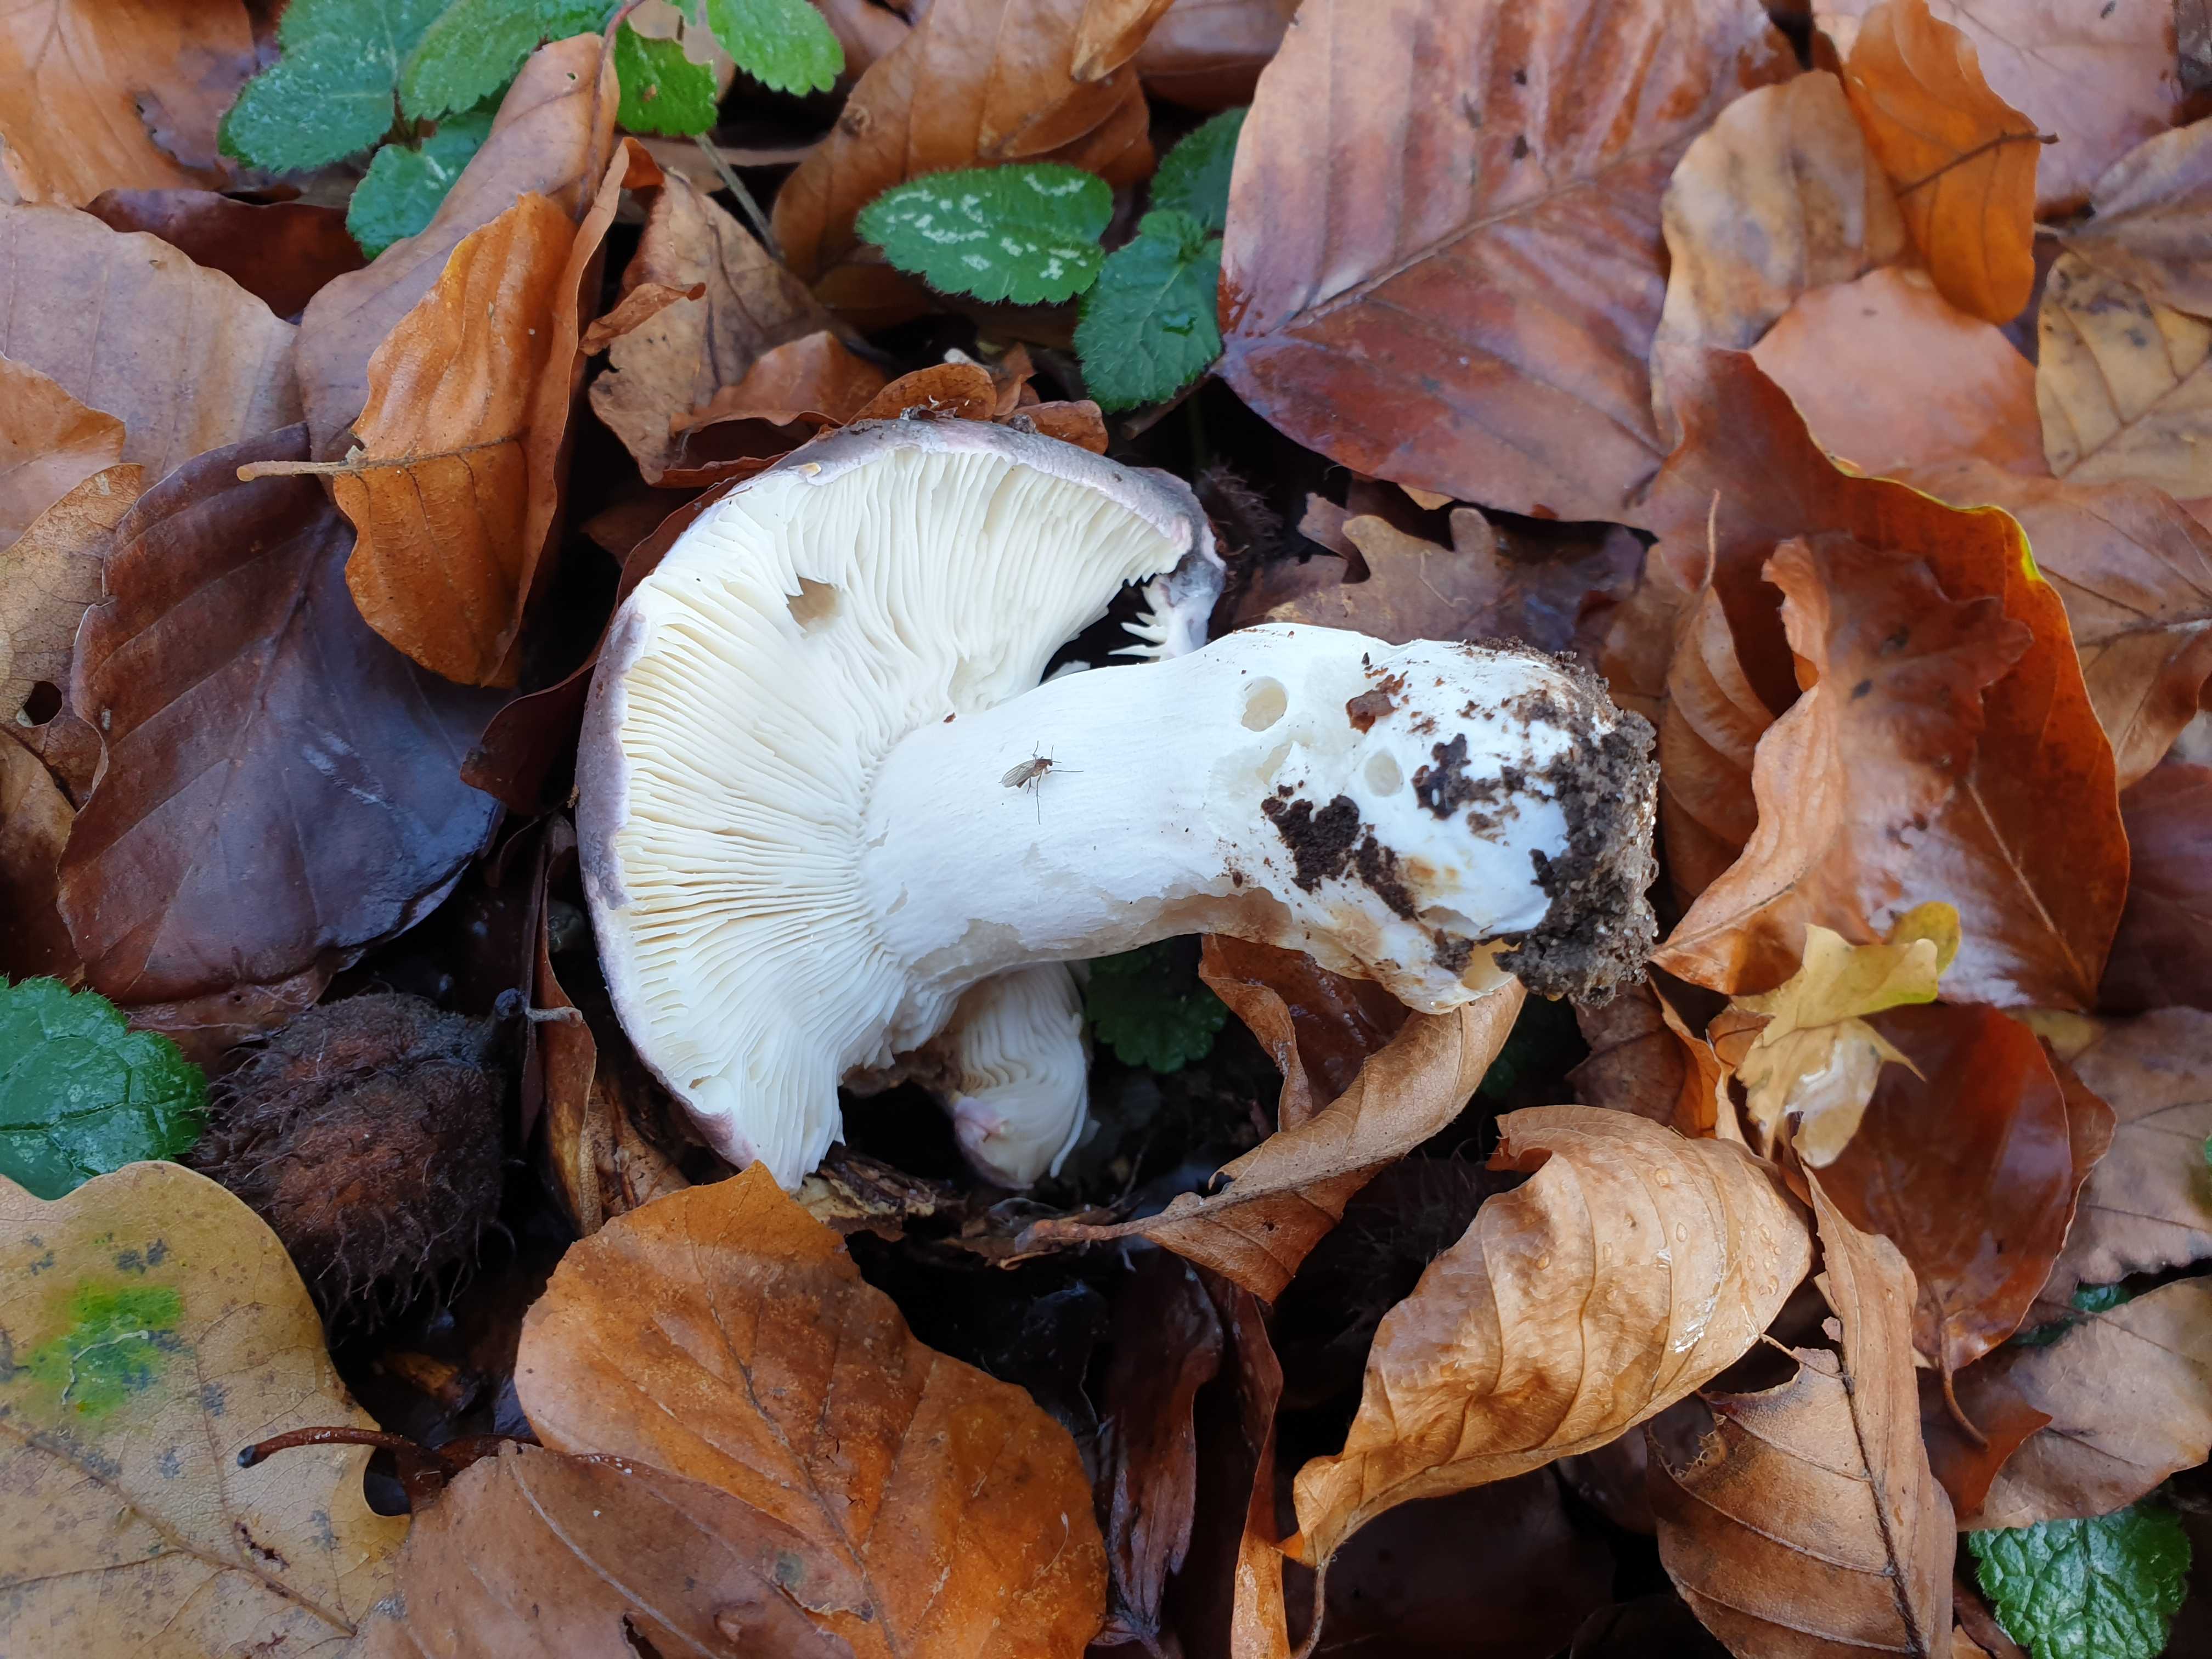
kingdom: Fungi
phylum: Basidiomycota
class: Agaricomycetes
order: Russulales
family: Russulaceae
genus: Russula
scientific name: Russula cyanoxantha
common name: broget skørhat
